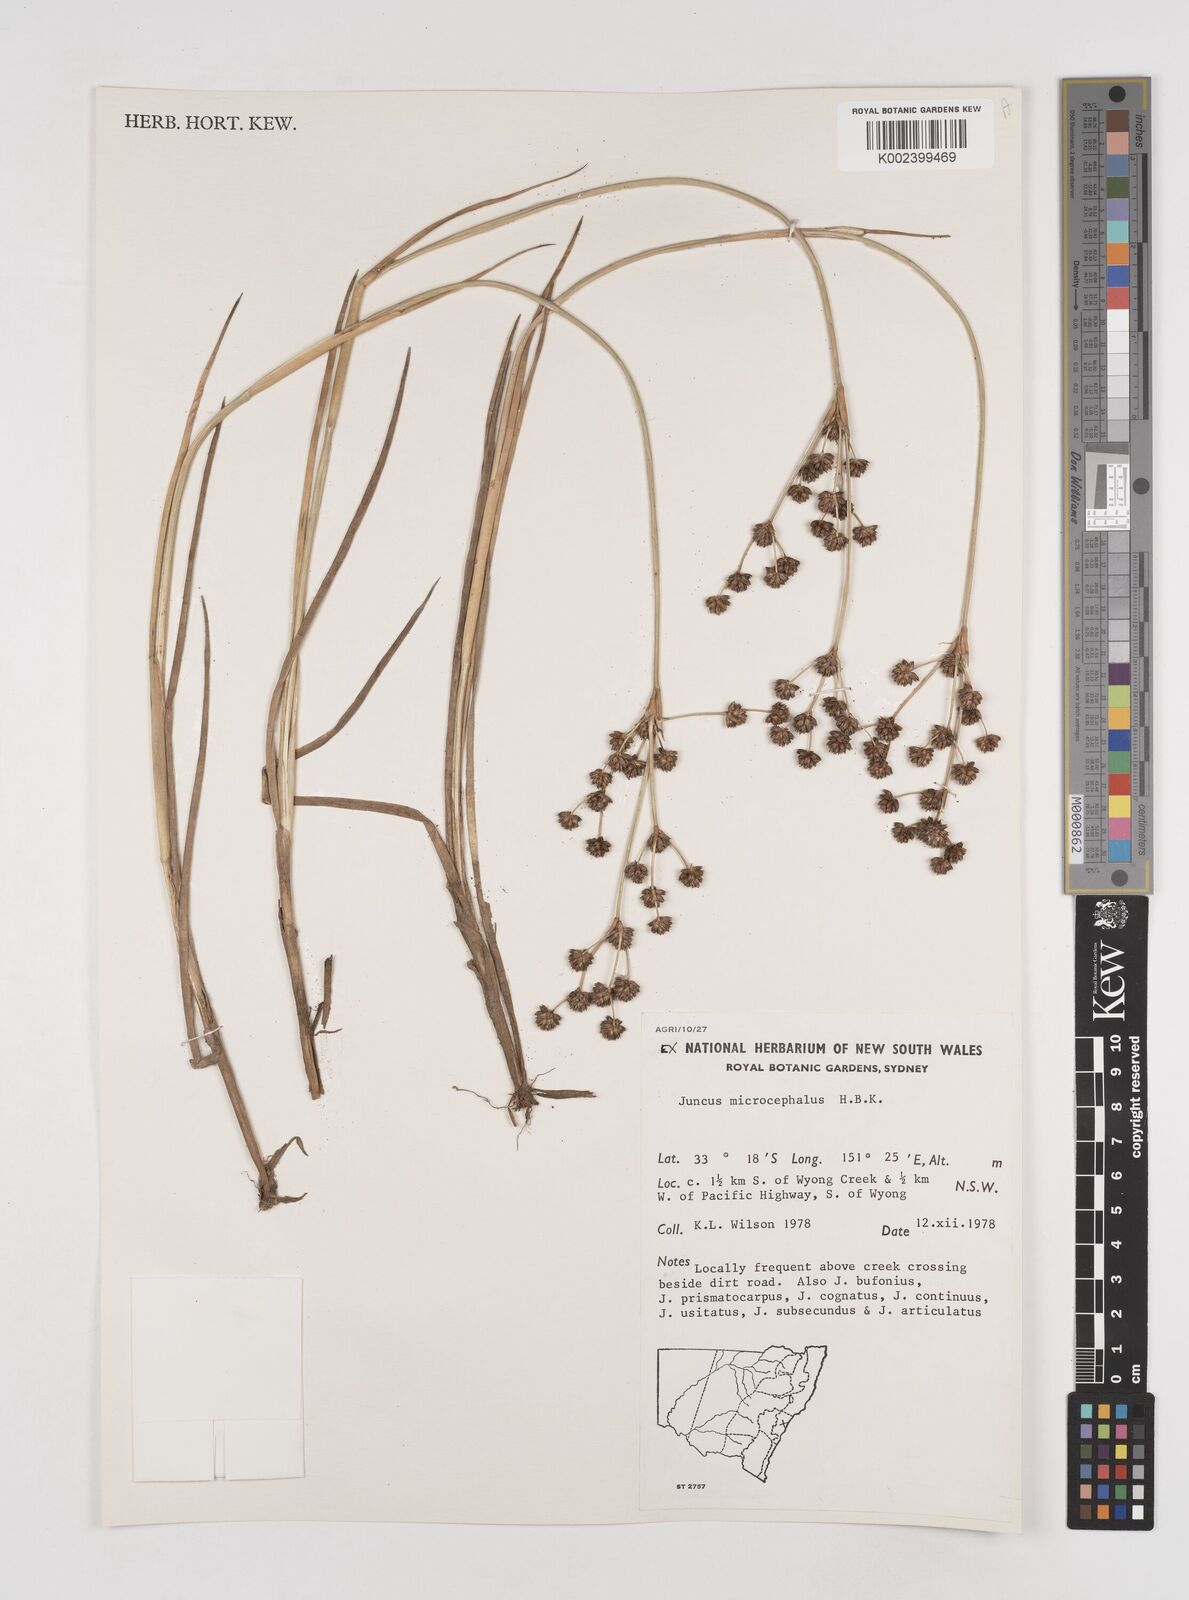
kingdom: Plantae
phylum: Tracheophyta
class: Liliopsida
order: Poales
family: Juncaceae
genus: Juncus
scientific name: Juncus microcephalus
